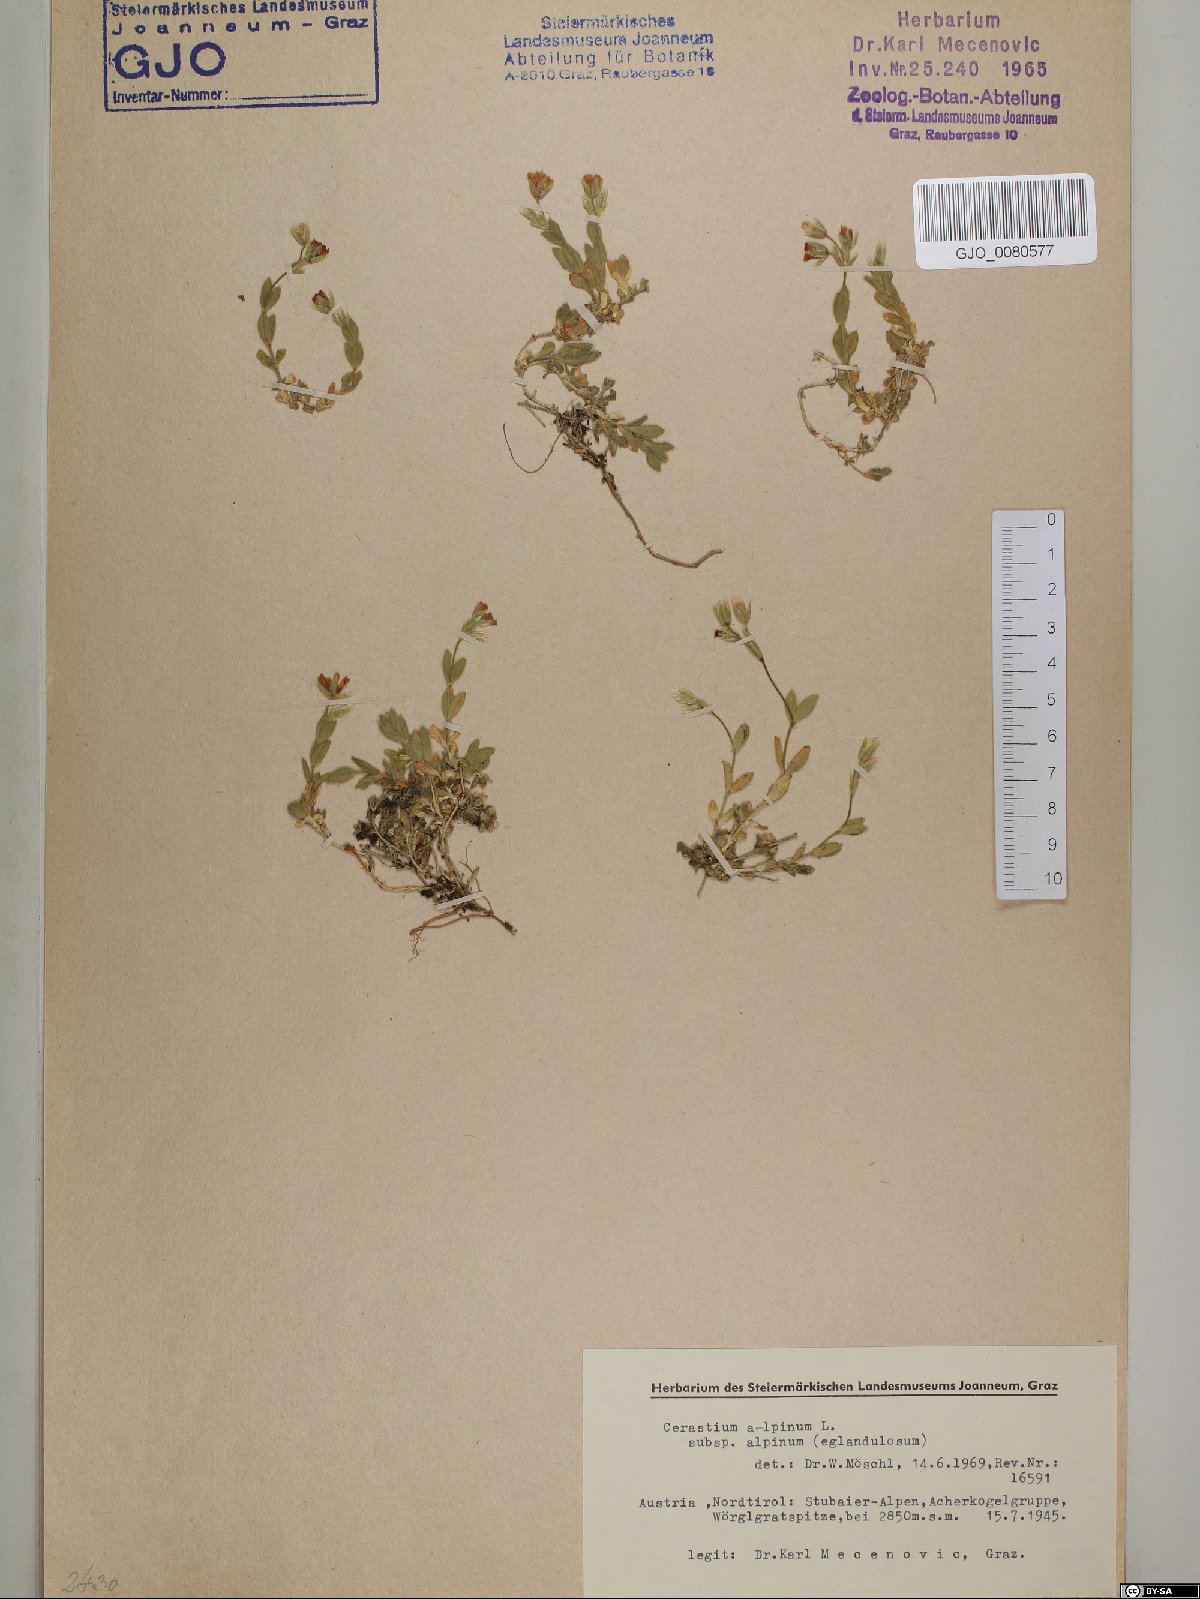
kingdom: Plantae
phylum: Tracheophyta
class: Magnoliopsida
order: Caryophyllales
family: Caryophyllaceae
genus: Cerastium
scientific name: Cerastium alpinum
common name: Alpine mouse-ear
